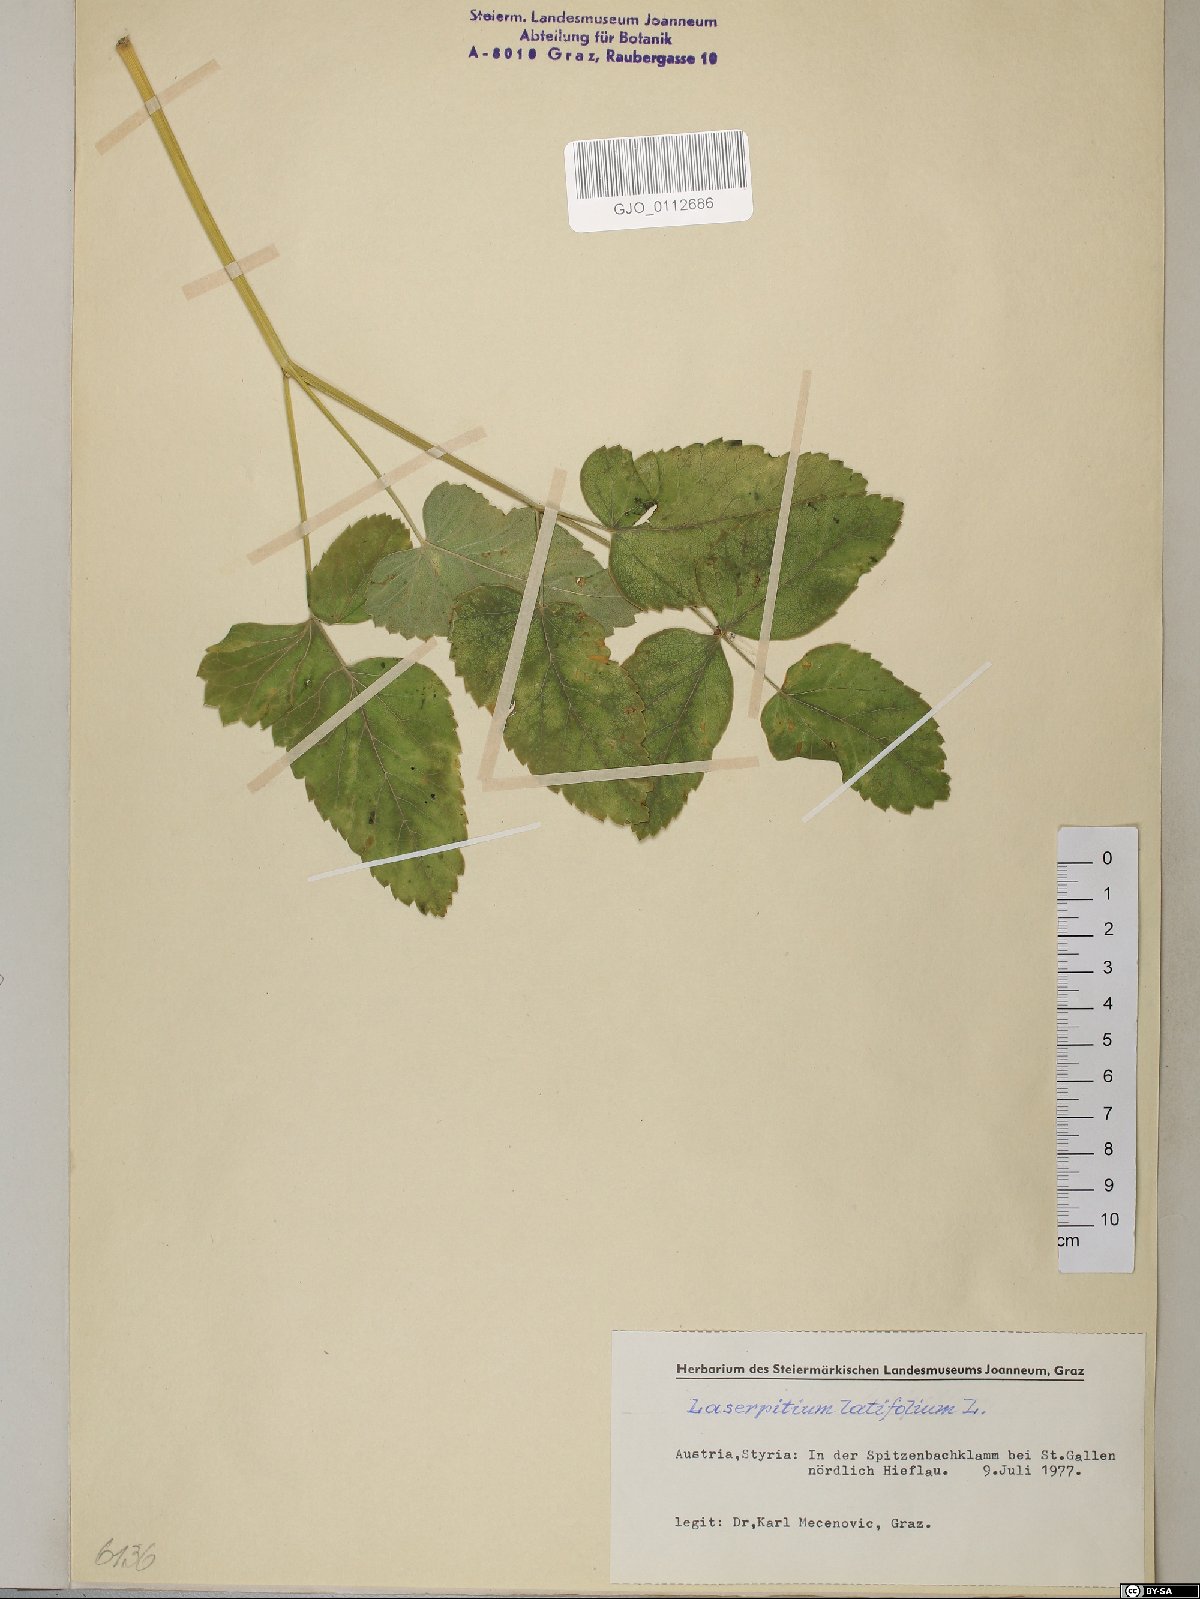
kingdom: Plantae
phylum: Tracheophyta
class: Magnoliopsida
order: Apiales
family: Apiaceae
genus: Laserpitium
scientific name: Laserpitium latifolium
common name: Broadleaf sermountain
